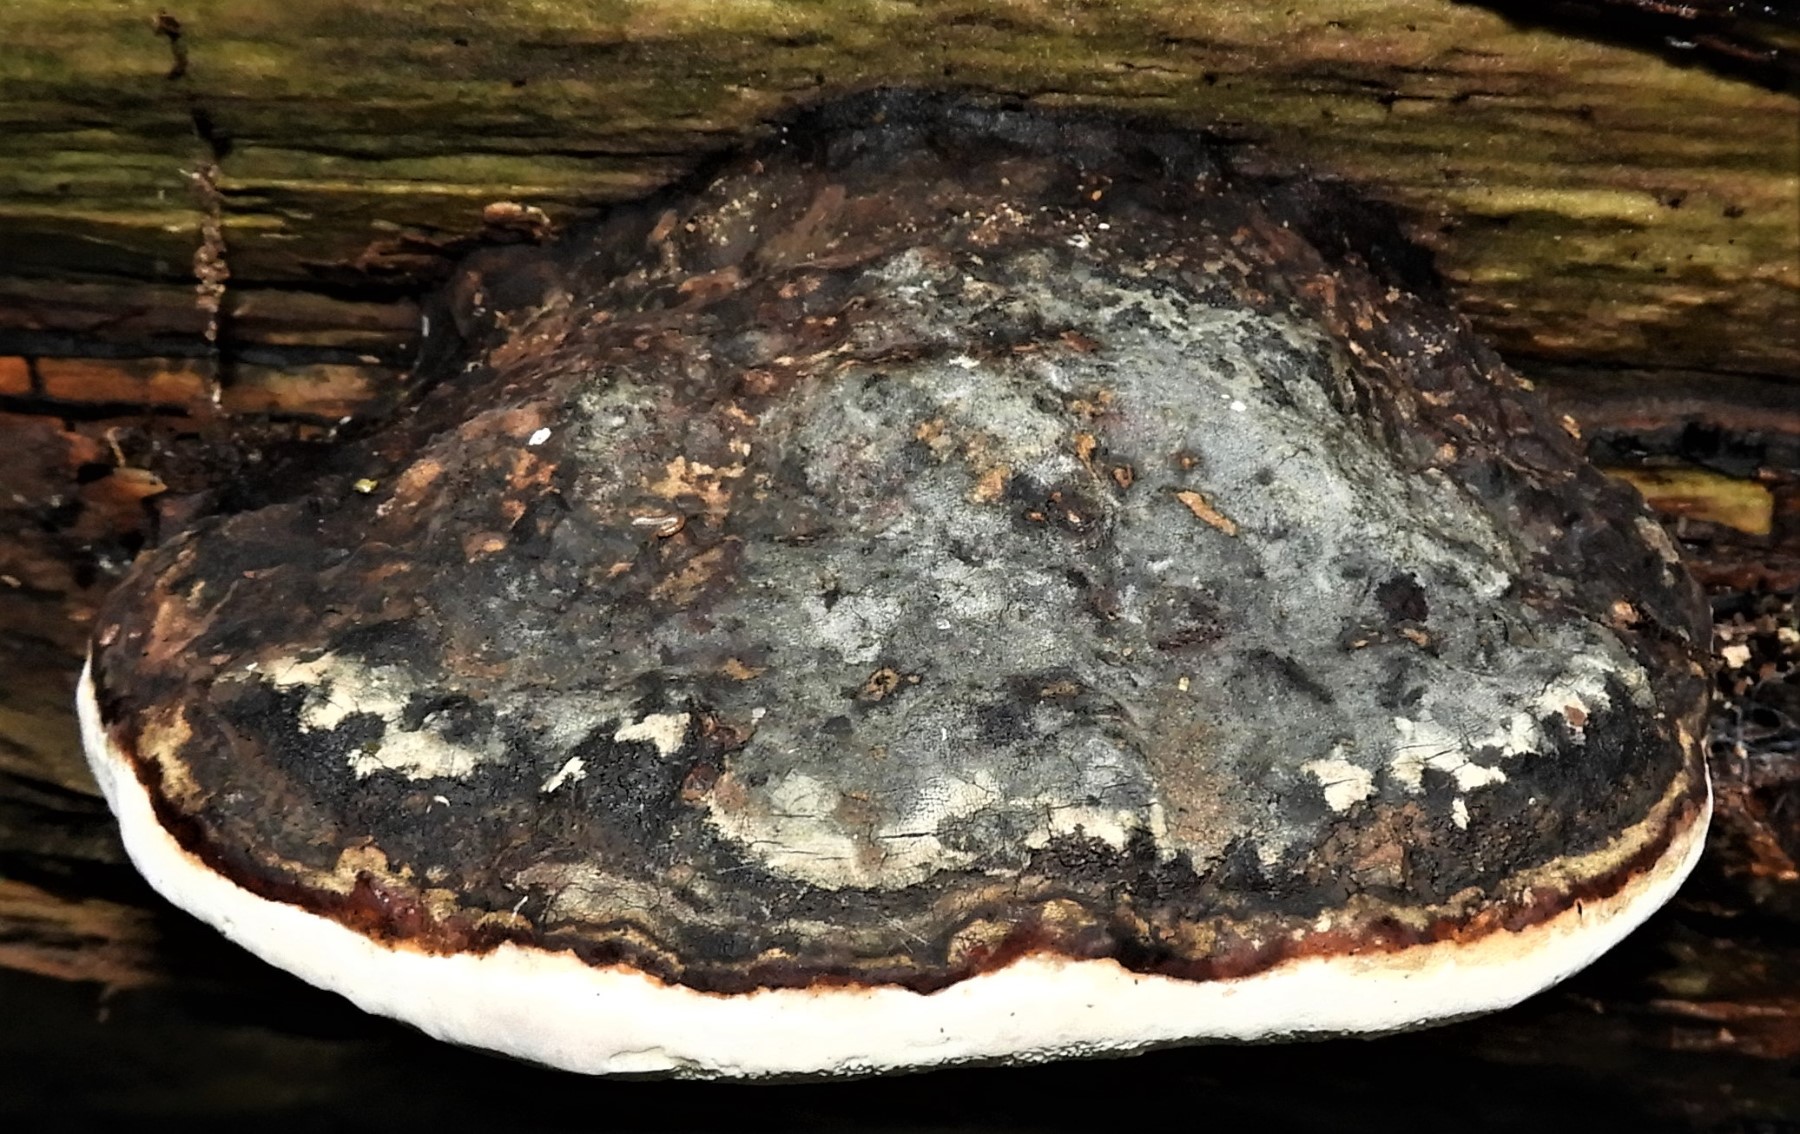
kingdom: Fungi
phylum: Basidiomycota
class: Agaricomycetes
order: Polyporales
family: Fomitopsidaceae
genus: Fomitopsis
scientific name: Fomitopsis pinicola
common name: randbæltet hovporesvamp
